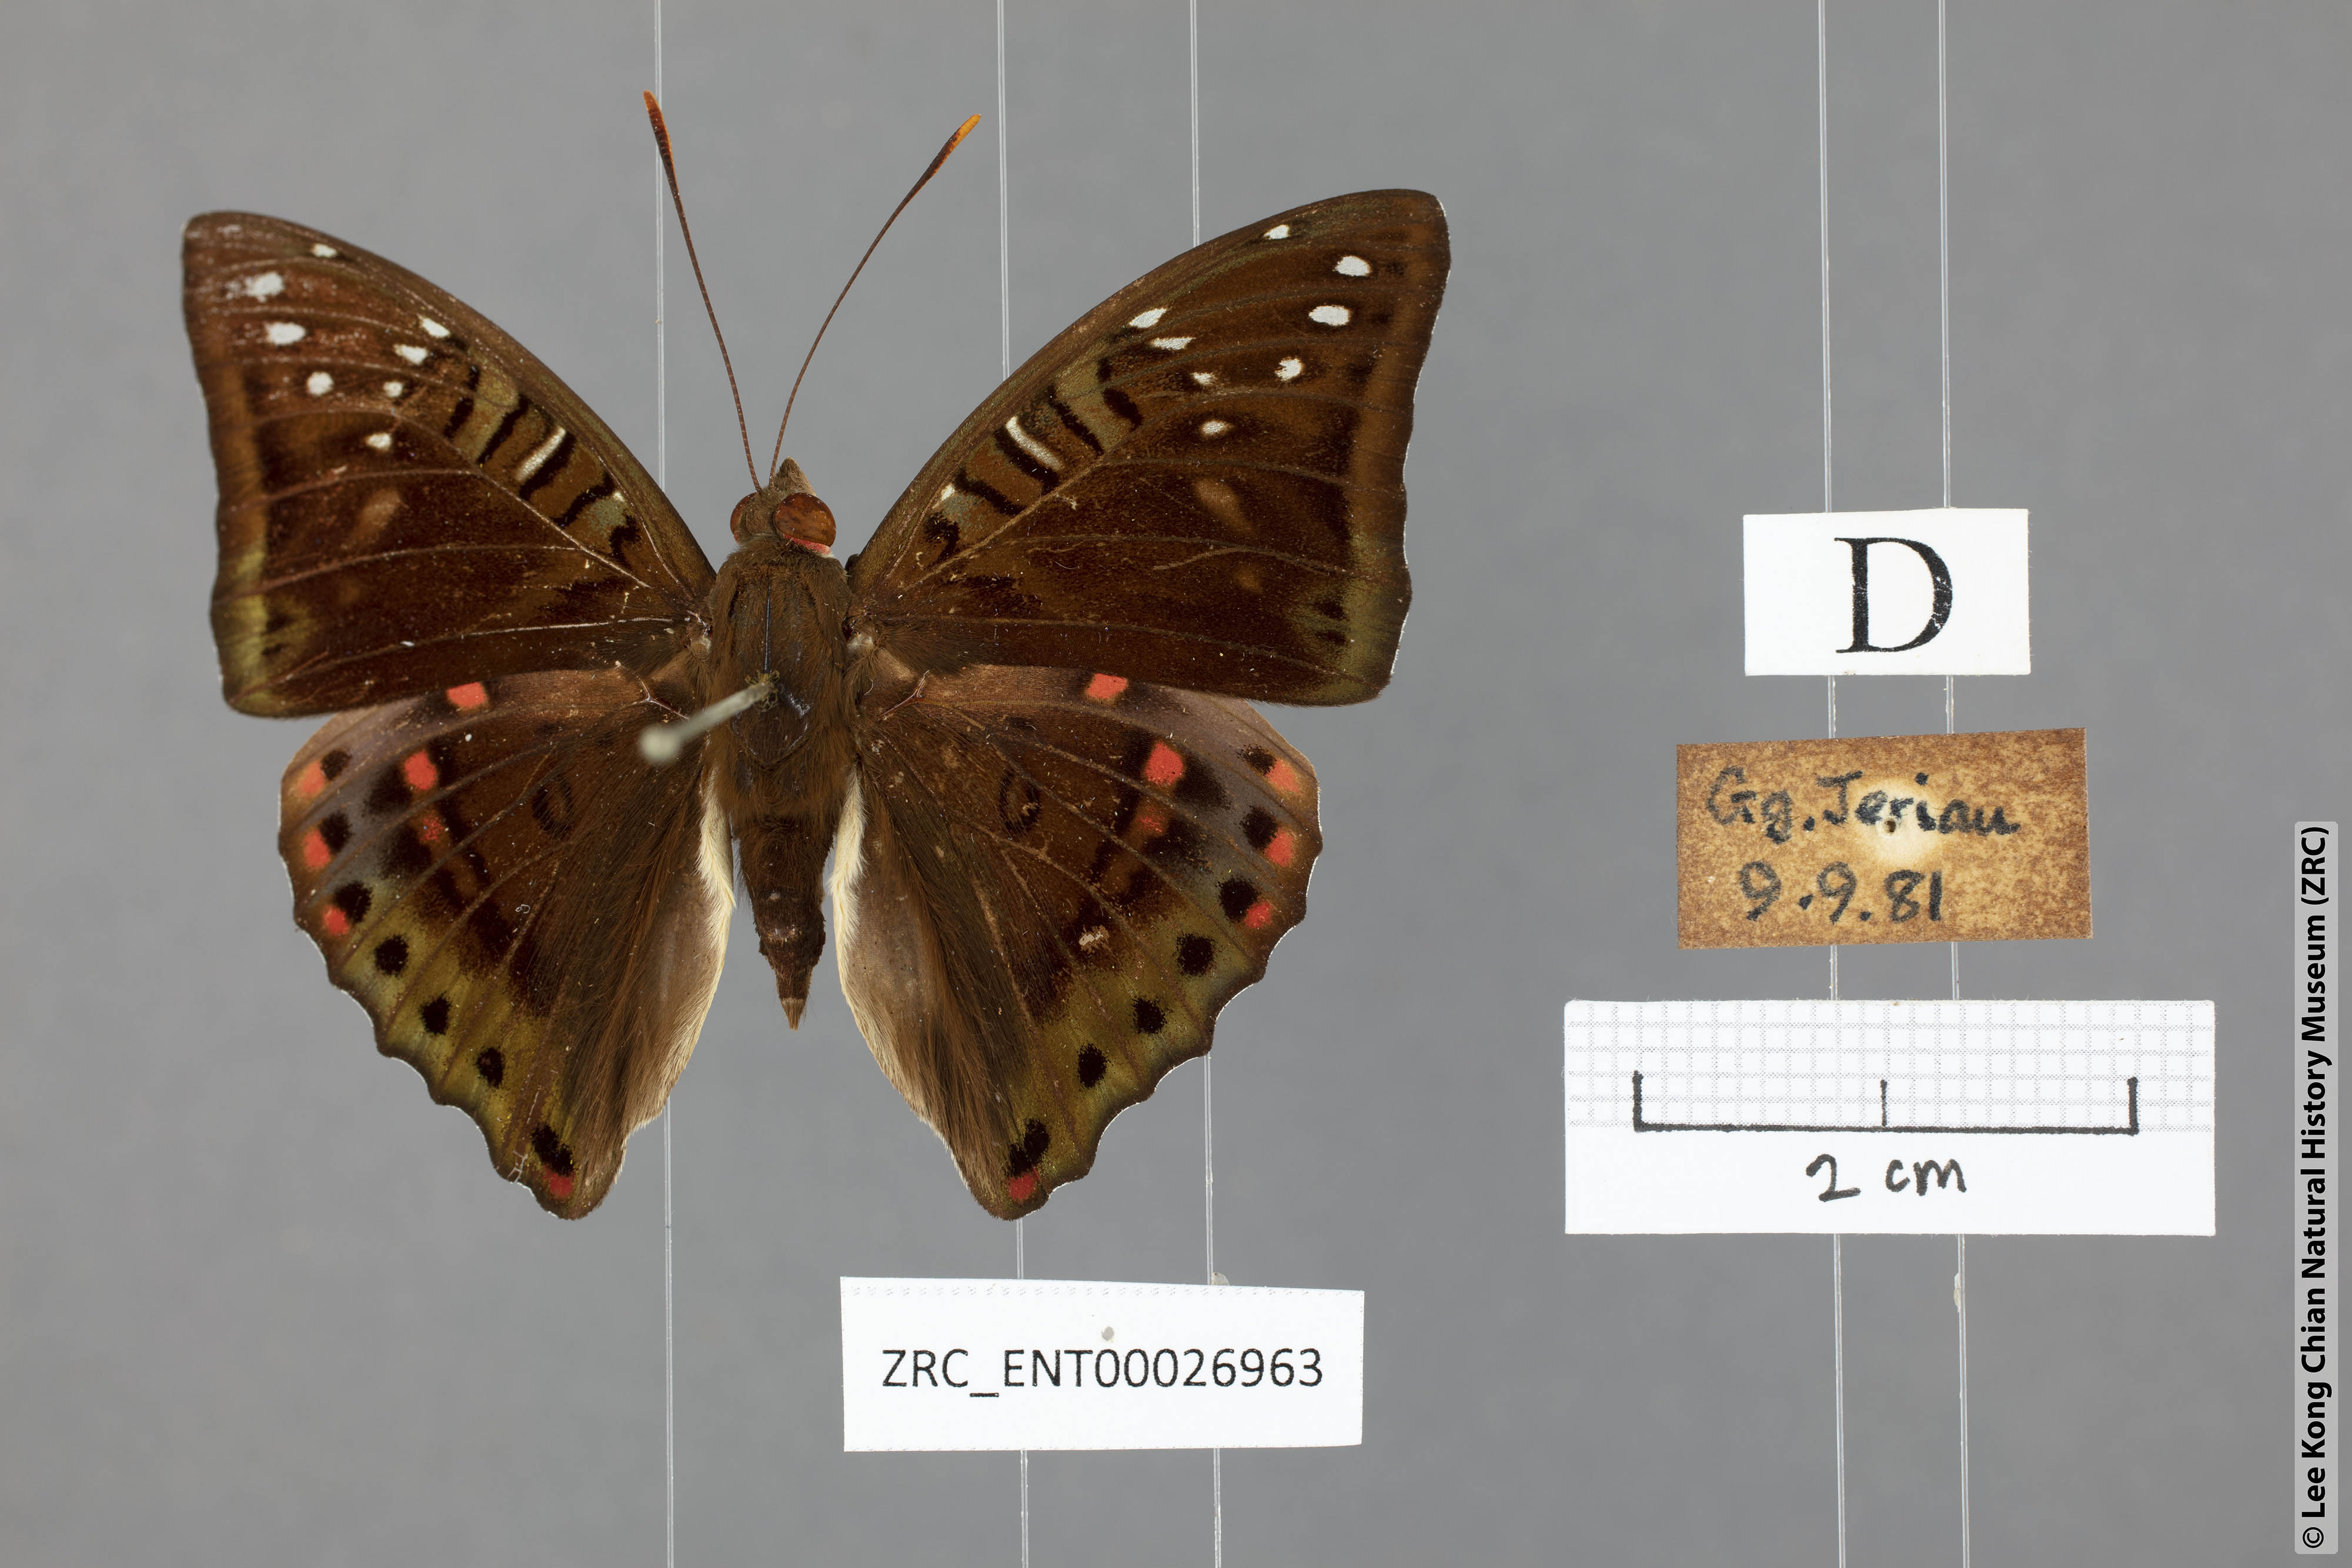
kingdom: Animalia
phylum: Arthropoda
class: Insecta
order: Lepidoptera
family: Nymphalidae
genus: Euthalia
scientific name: Euthalia lubentina
